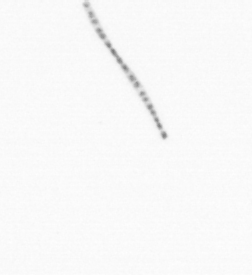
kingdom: Chromista
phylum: Ochrophyta
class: Bacillariophyceae
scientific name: Bacillariophyceae
